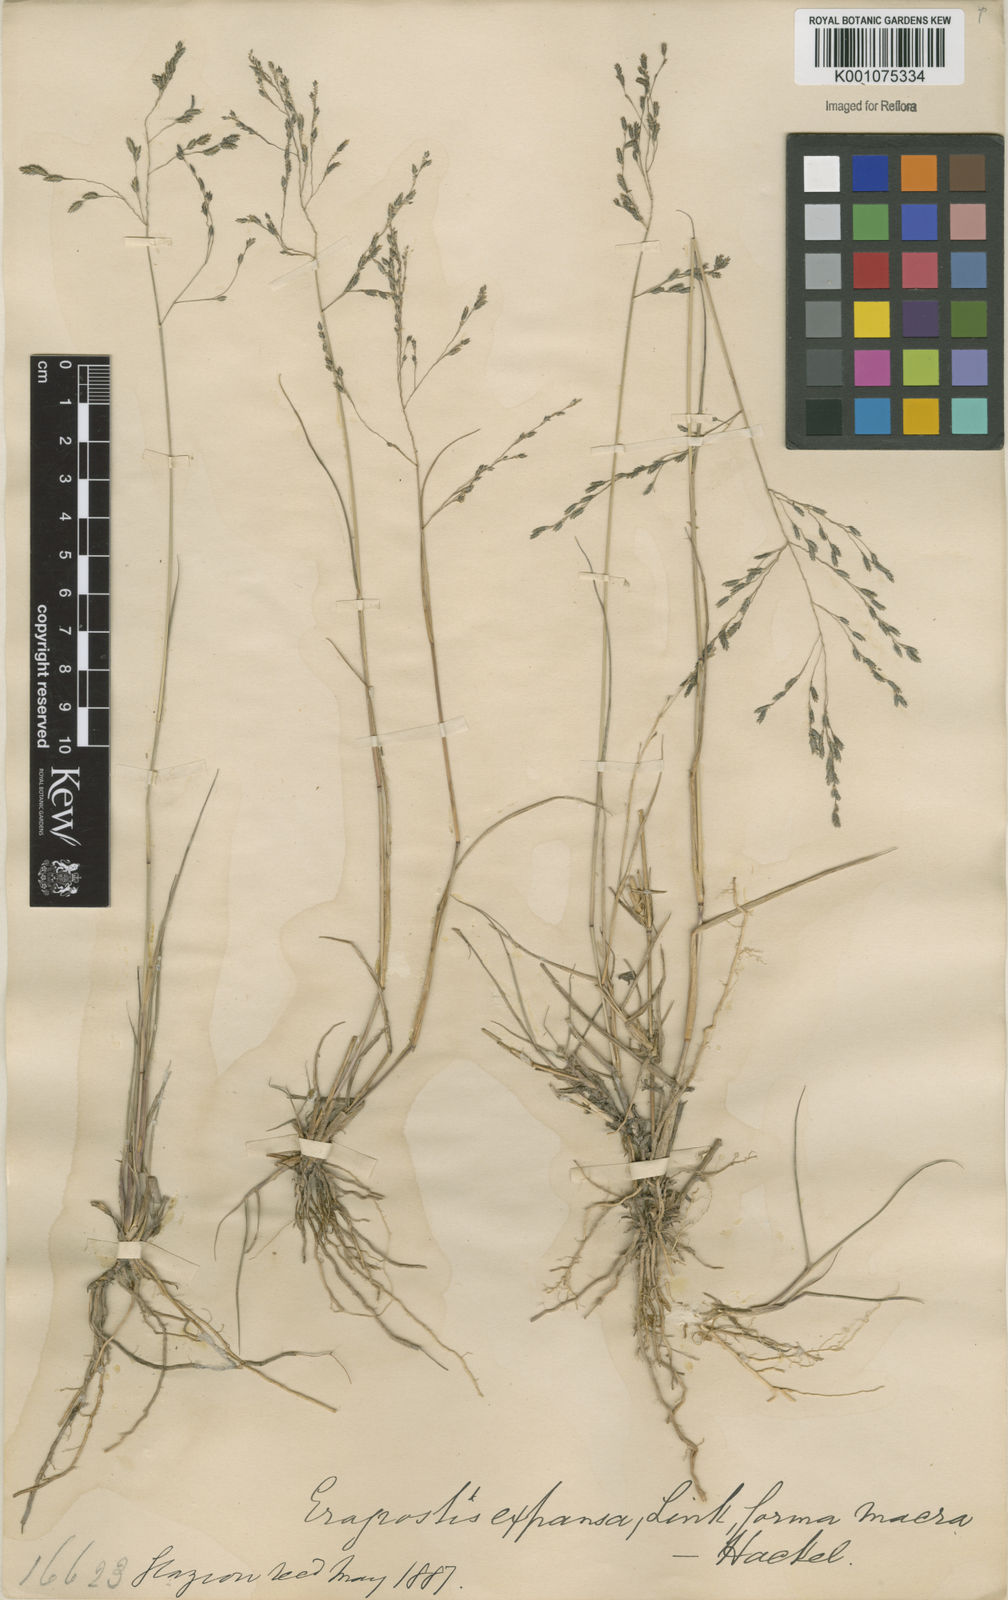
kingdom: Plantae
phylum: Tracheophyta
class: Liliopsida
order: Poales
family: Poaceae
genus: Eragrostis
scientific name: Eragrostis bahiensis
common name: Bahia lovegrass
